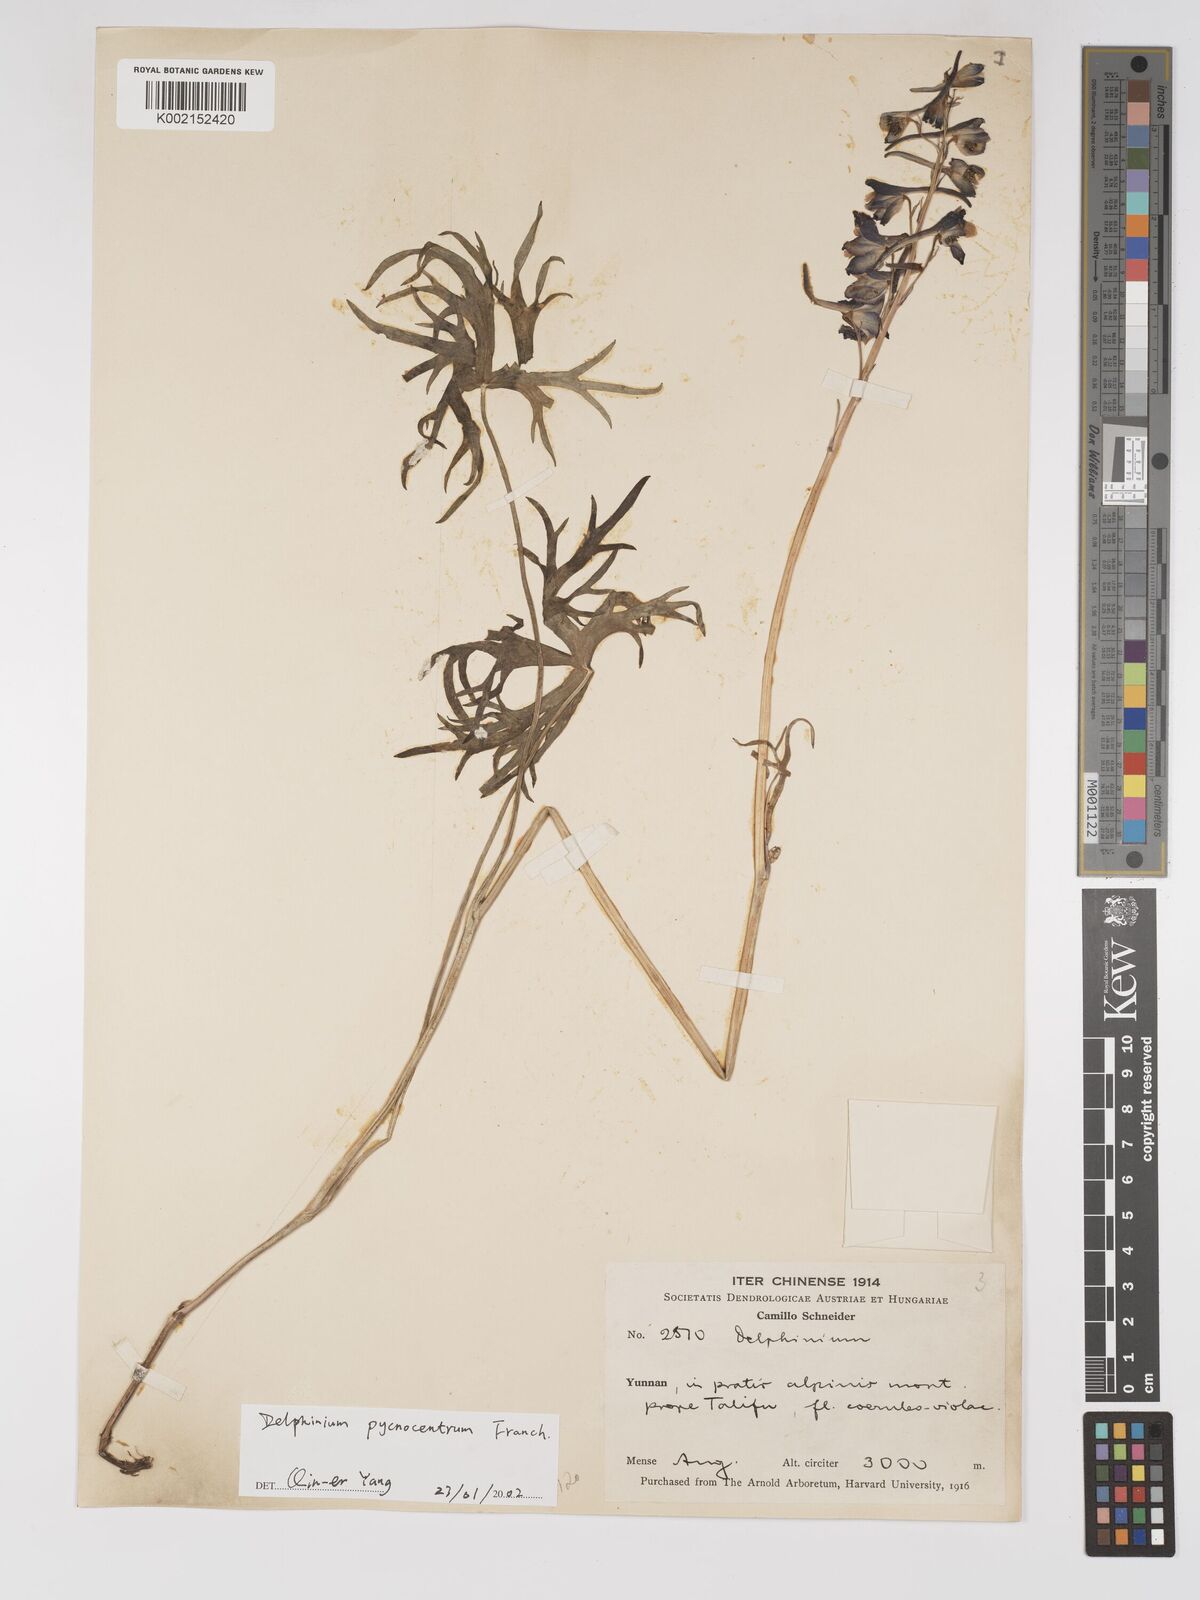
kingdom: Plantae
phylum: Tracheophyta
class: Magnoliopsida
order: Ranunculales
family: Ranunculaceae
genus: Delphinium
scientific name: Delphinium pycnocentrum
